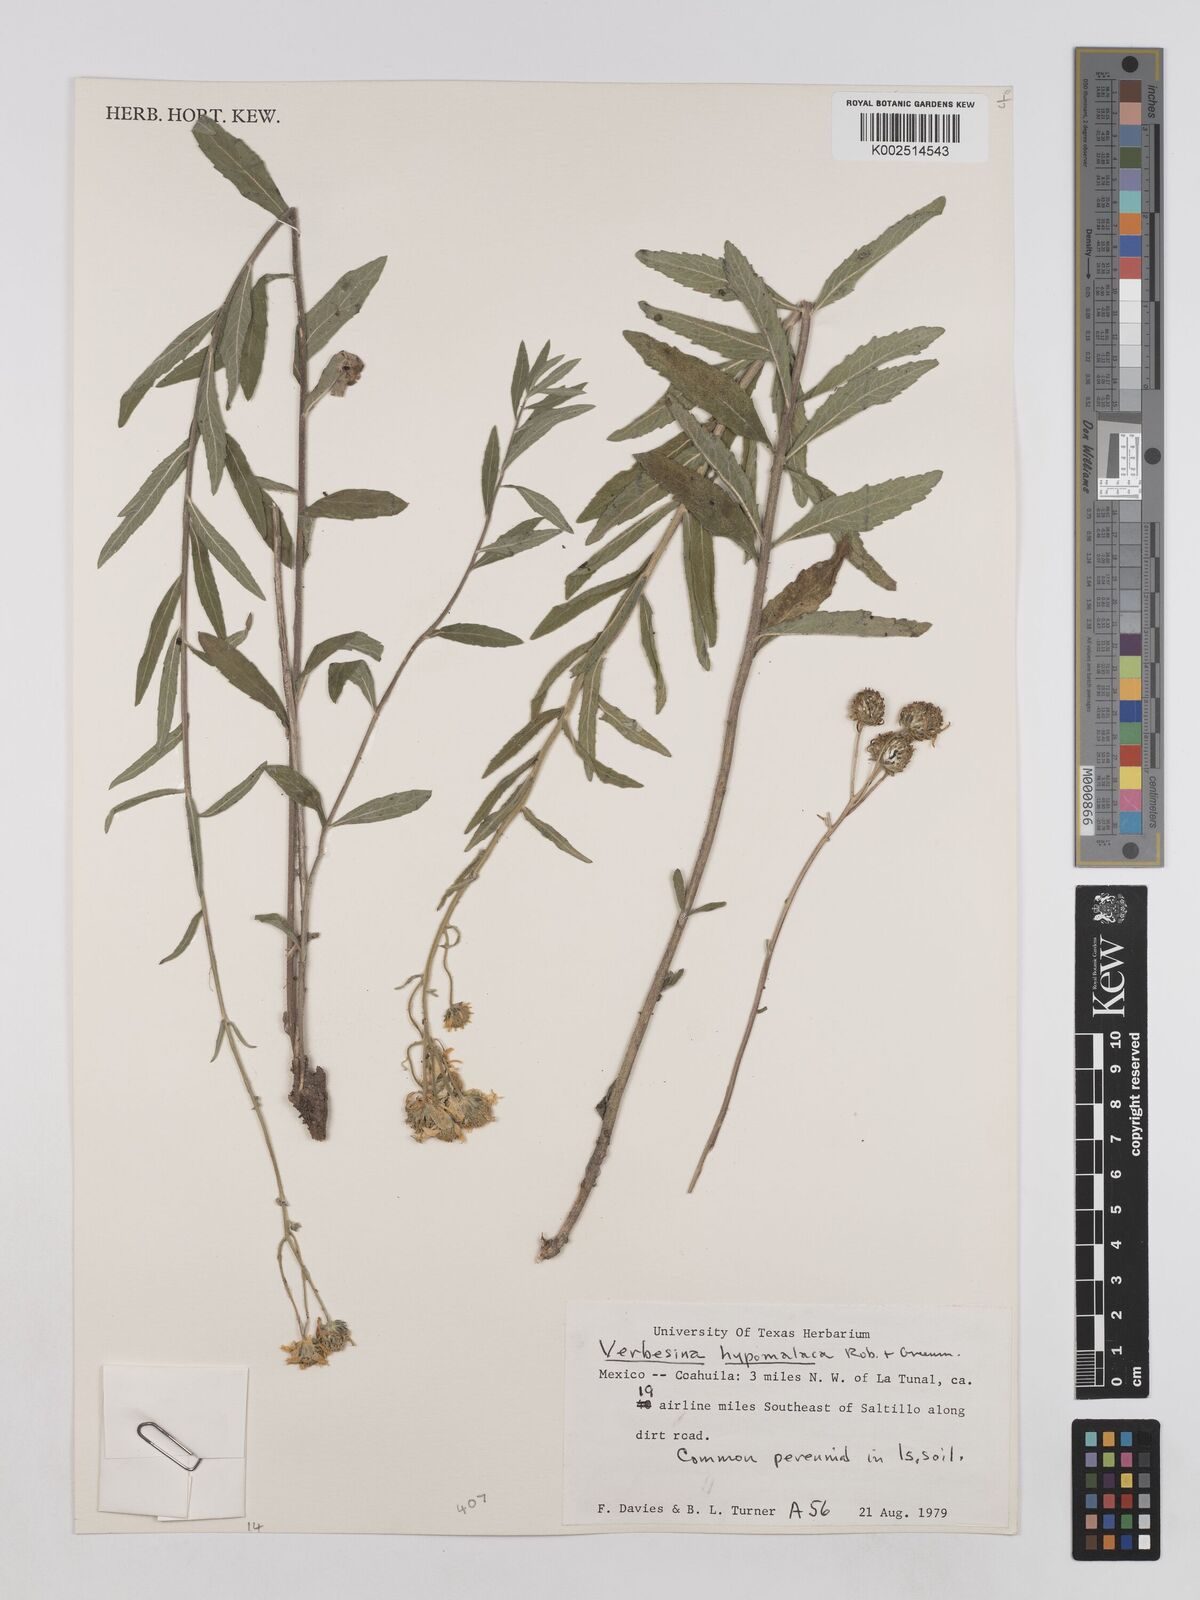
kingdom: Plantae
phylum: Tracheophyta
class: Magnoliopsida
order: Asterales
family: Asteraceae
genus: Verbesina
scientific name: Verbesina hypomalaca
